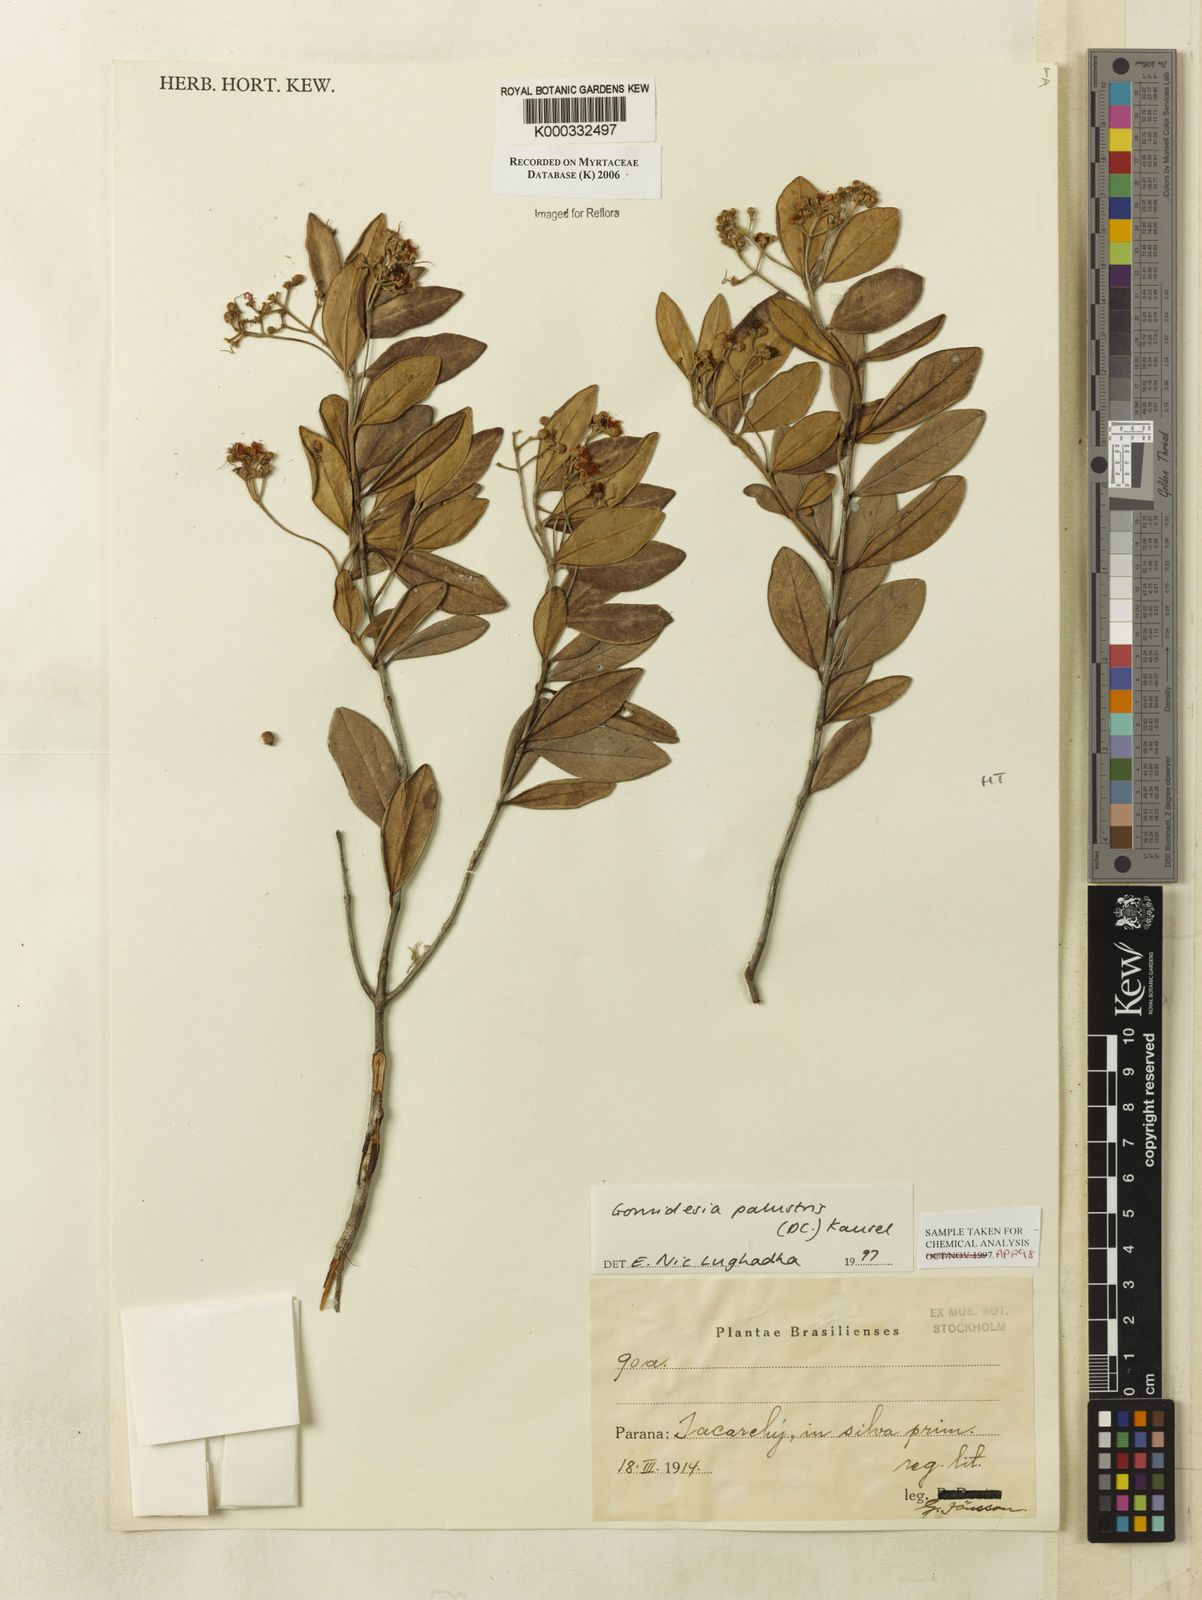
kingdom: Plantae
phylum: Tracheophyta
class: Magnoliopsida
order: Myrtales
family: Myrtaceae
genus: Myrcia
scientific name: Myrcia palustris
